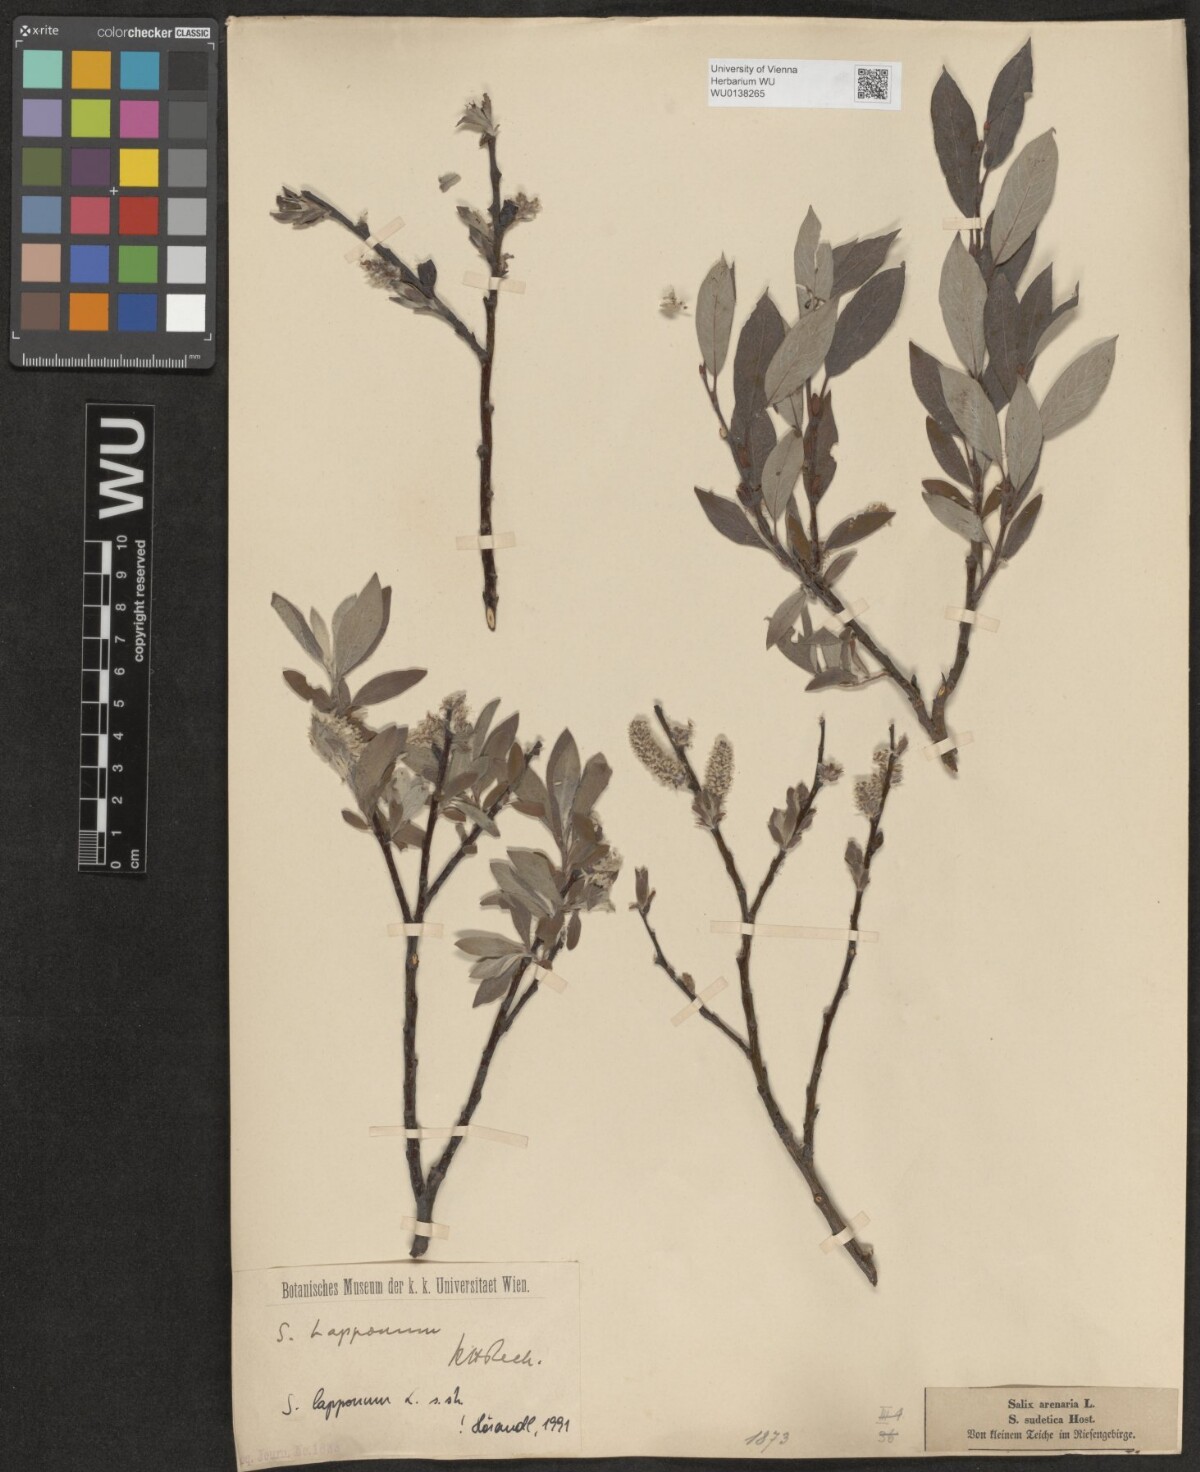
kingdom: Plantae
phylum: Tracheophyta
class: Magnoliopsida
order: Malpighiales
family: Salicaceae
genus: Salix
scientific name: Salix lapponum
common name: Downy willow
